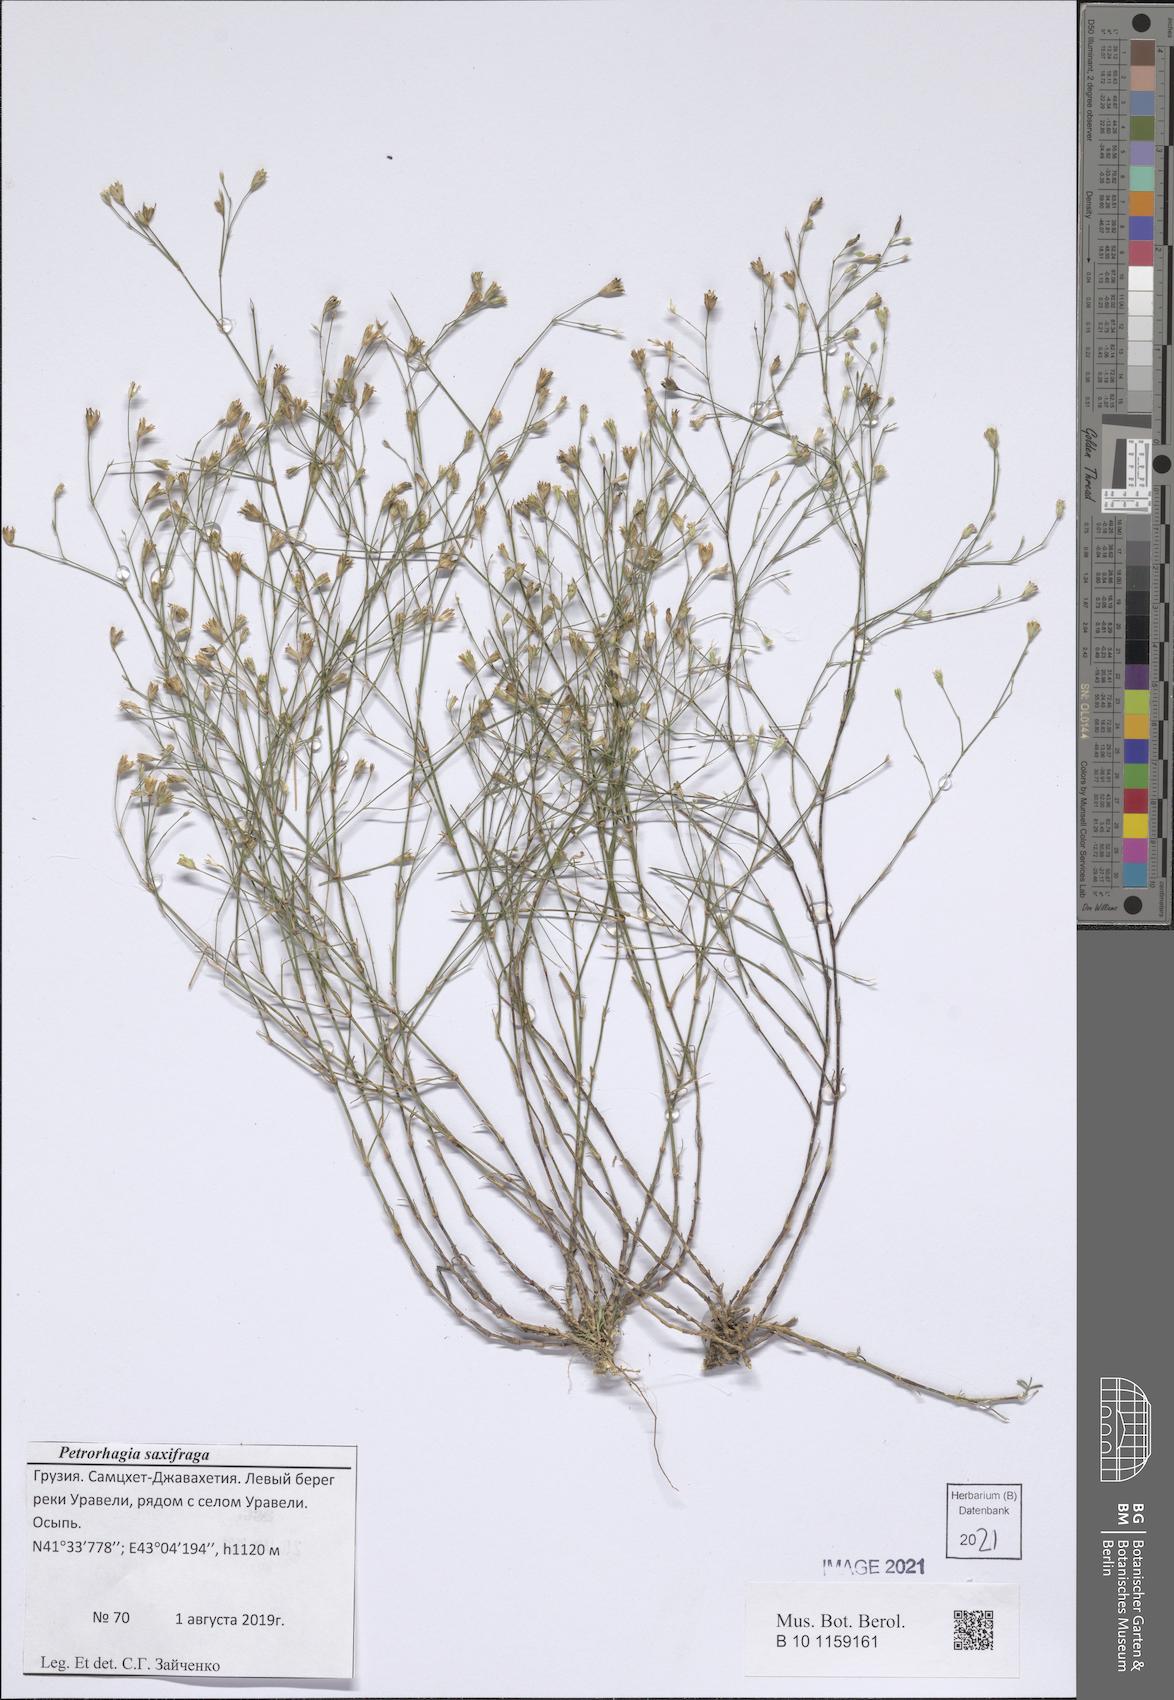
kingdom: Plantae
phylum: Tracheophyta
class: Magnoliopsida
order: Caryophyllales
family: Caryophyllaceae
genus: Petrorhagia
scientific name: Petrorhagia saxifraga
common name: Tunicflower
